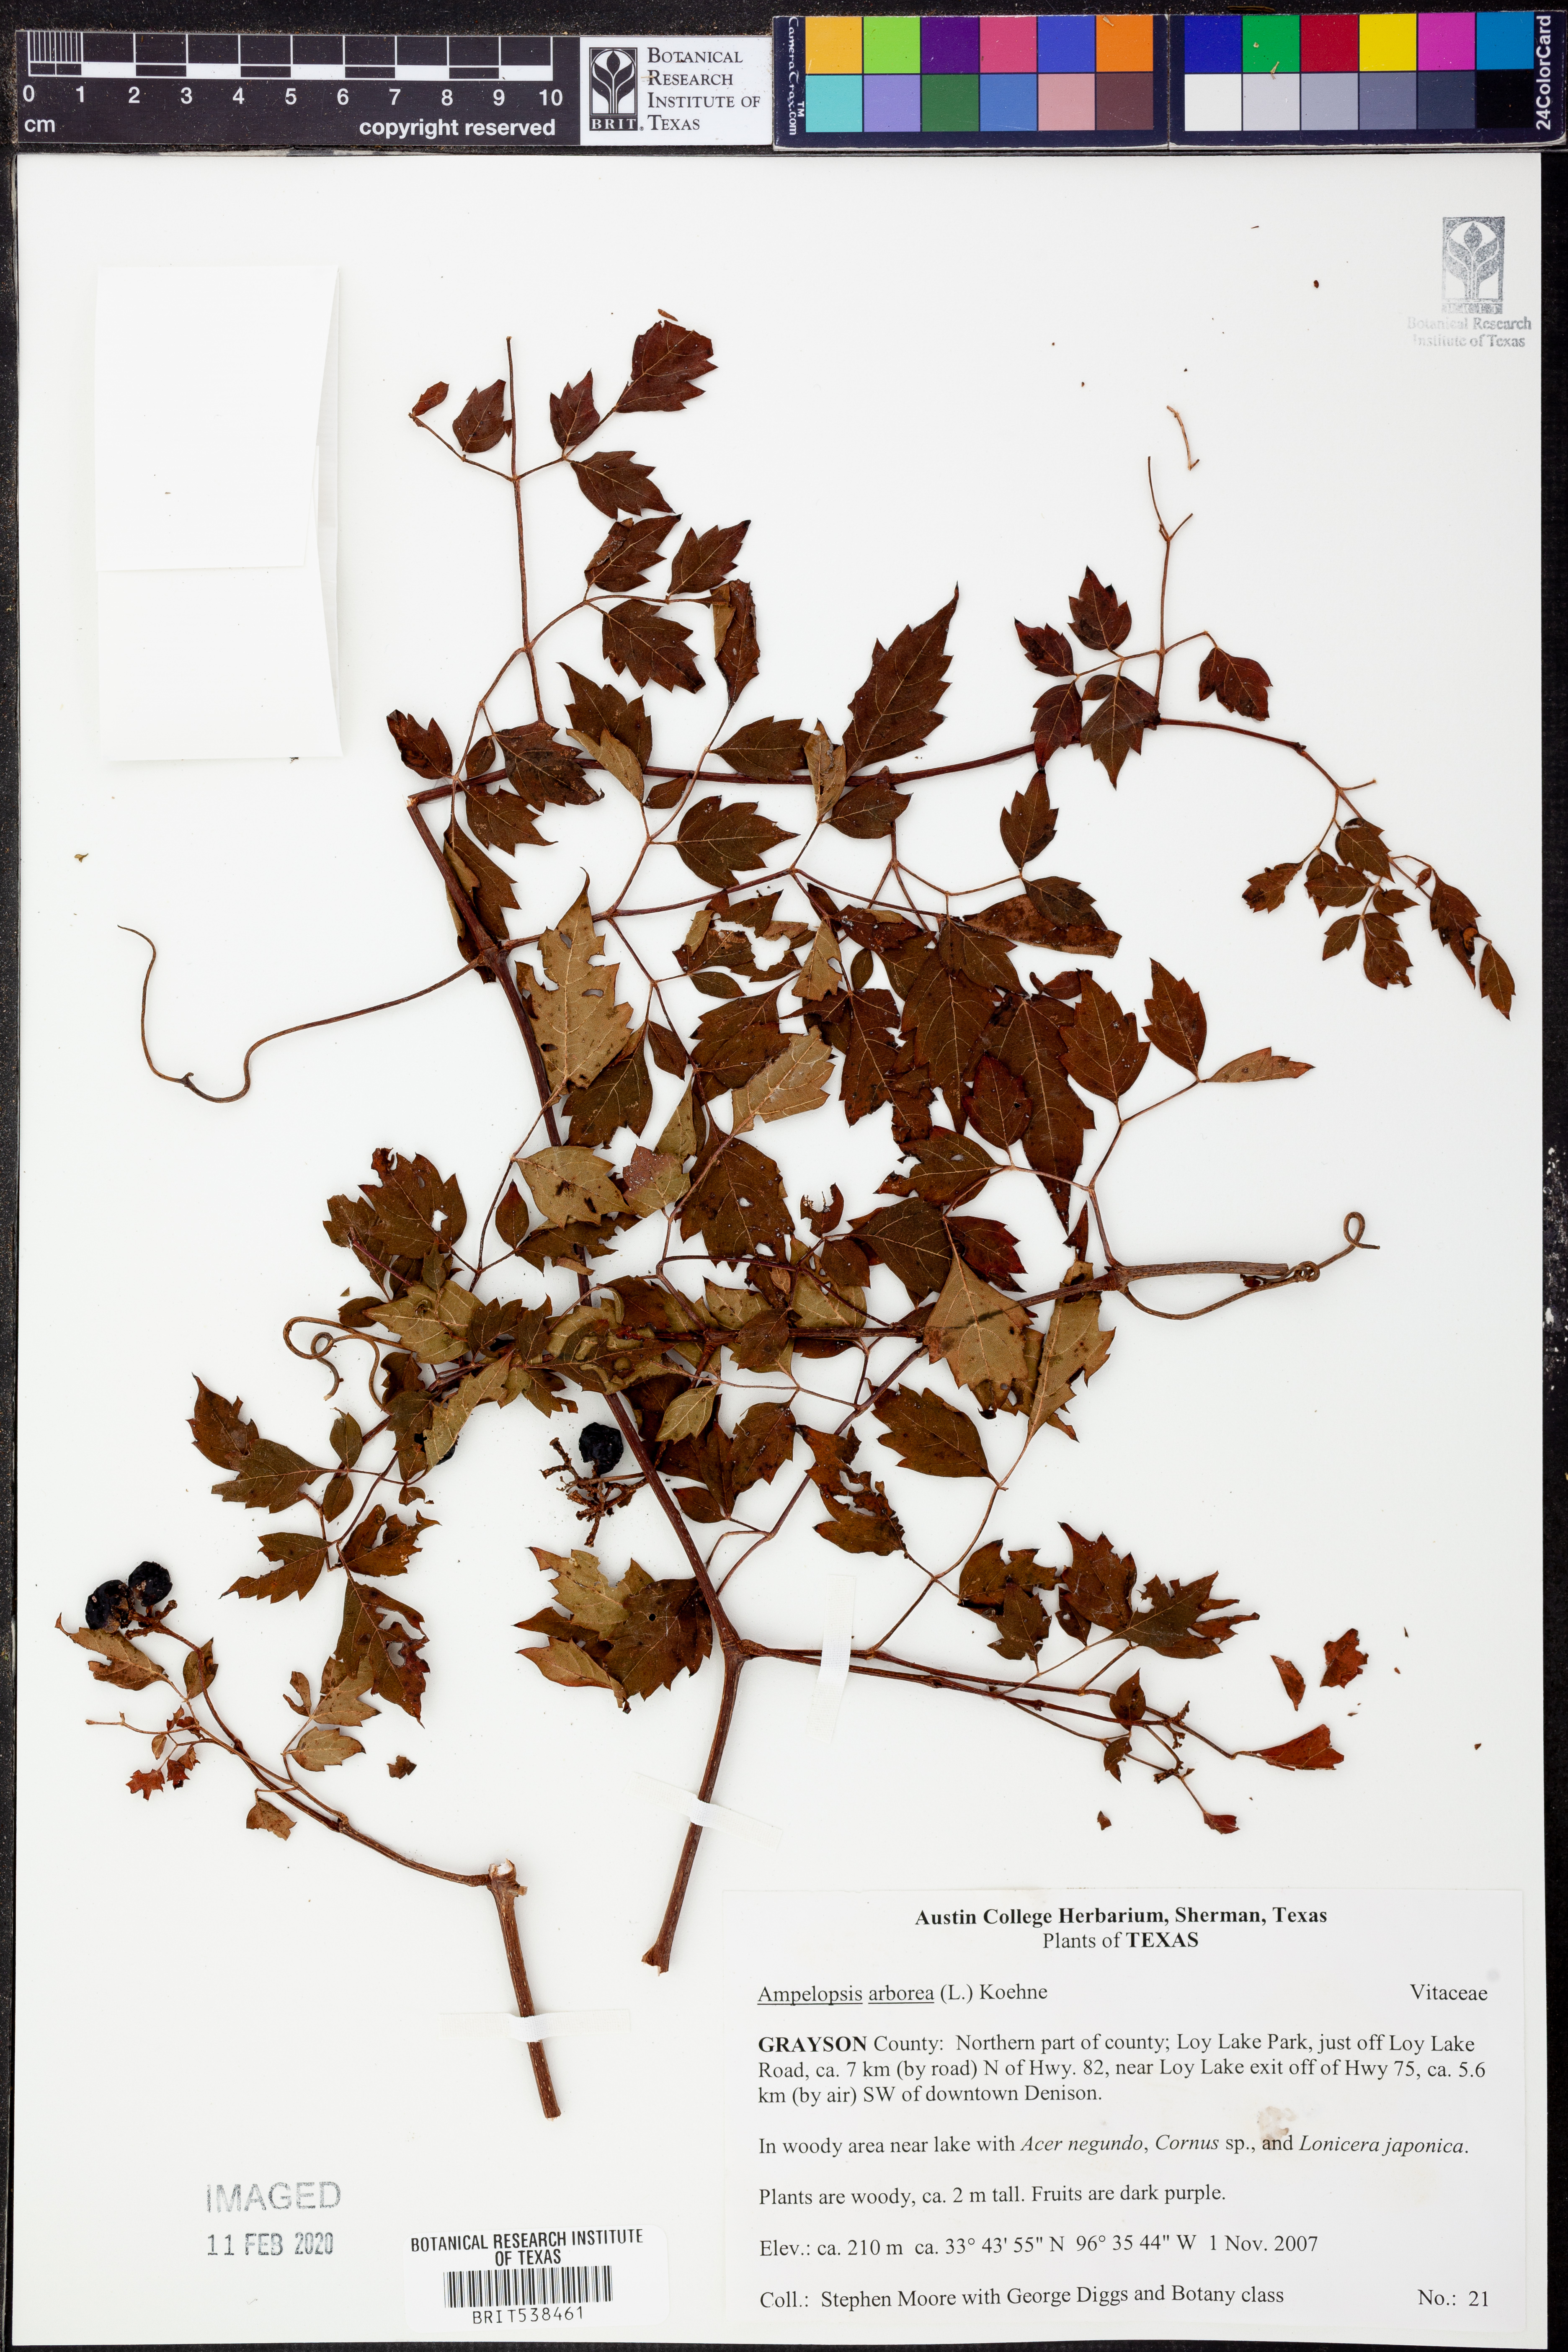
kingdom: Plantae
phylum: Tracheophyta
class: Magnoliopsida
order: Vitales
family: Vitaceae
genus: Nekemias
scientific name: Nekemias arborea
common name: Peppervine
